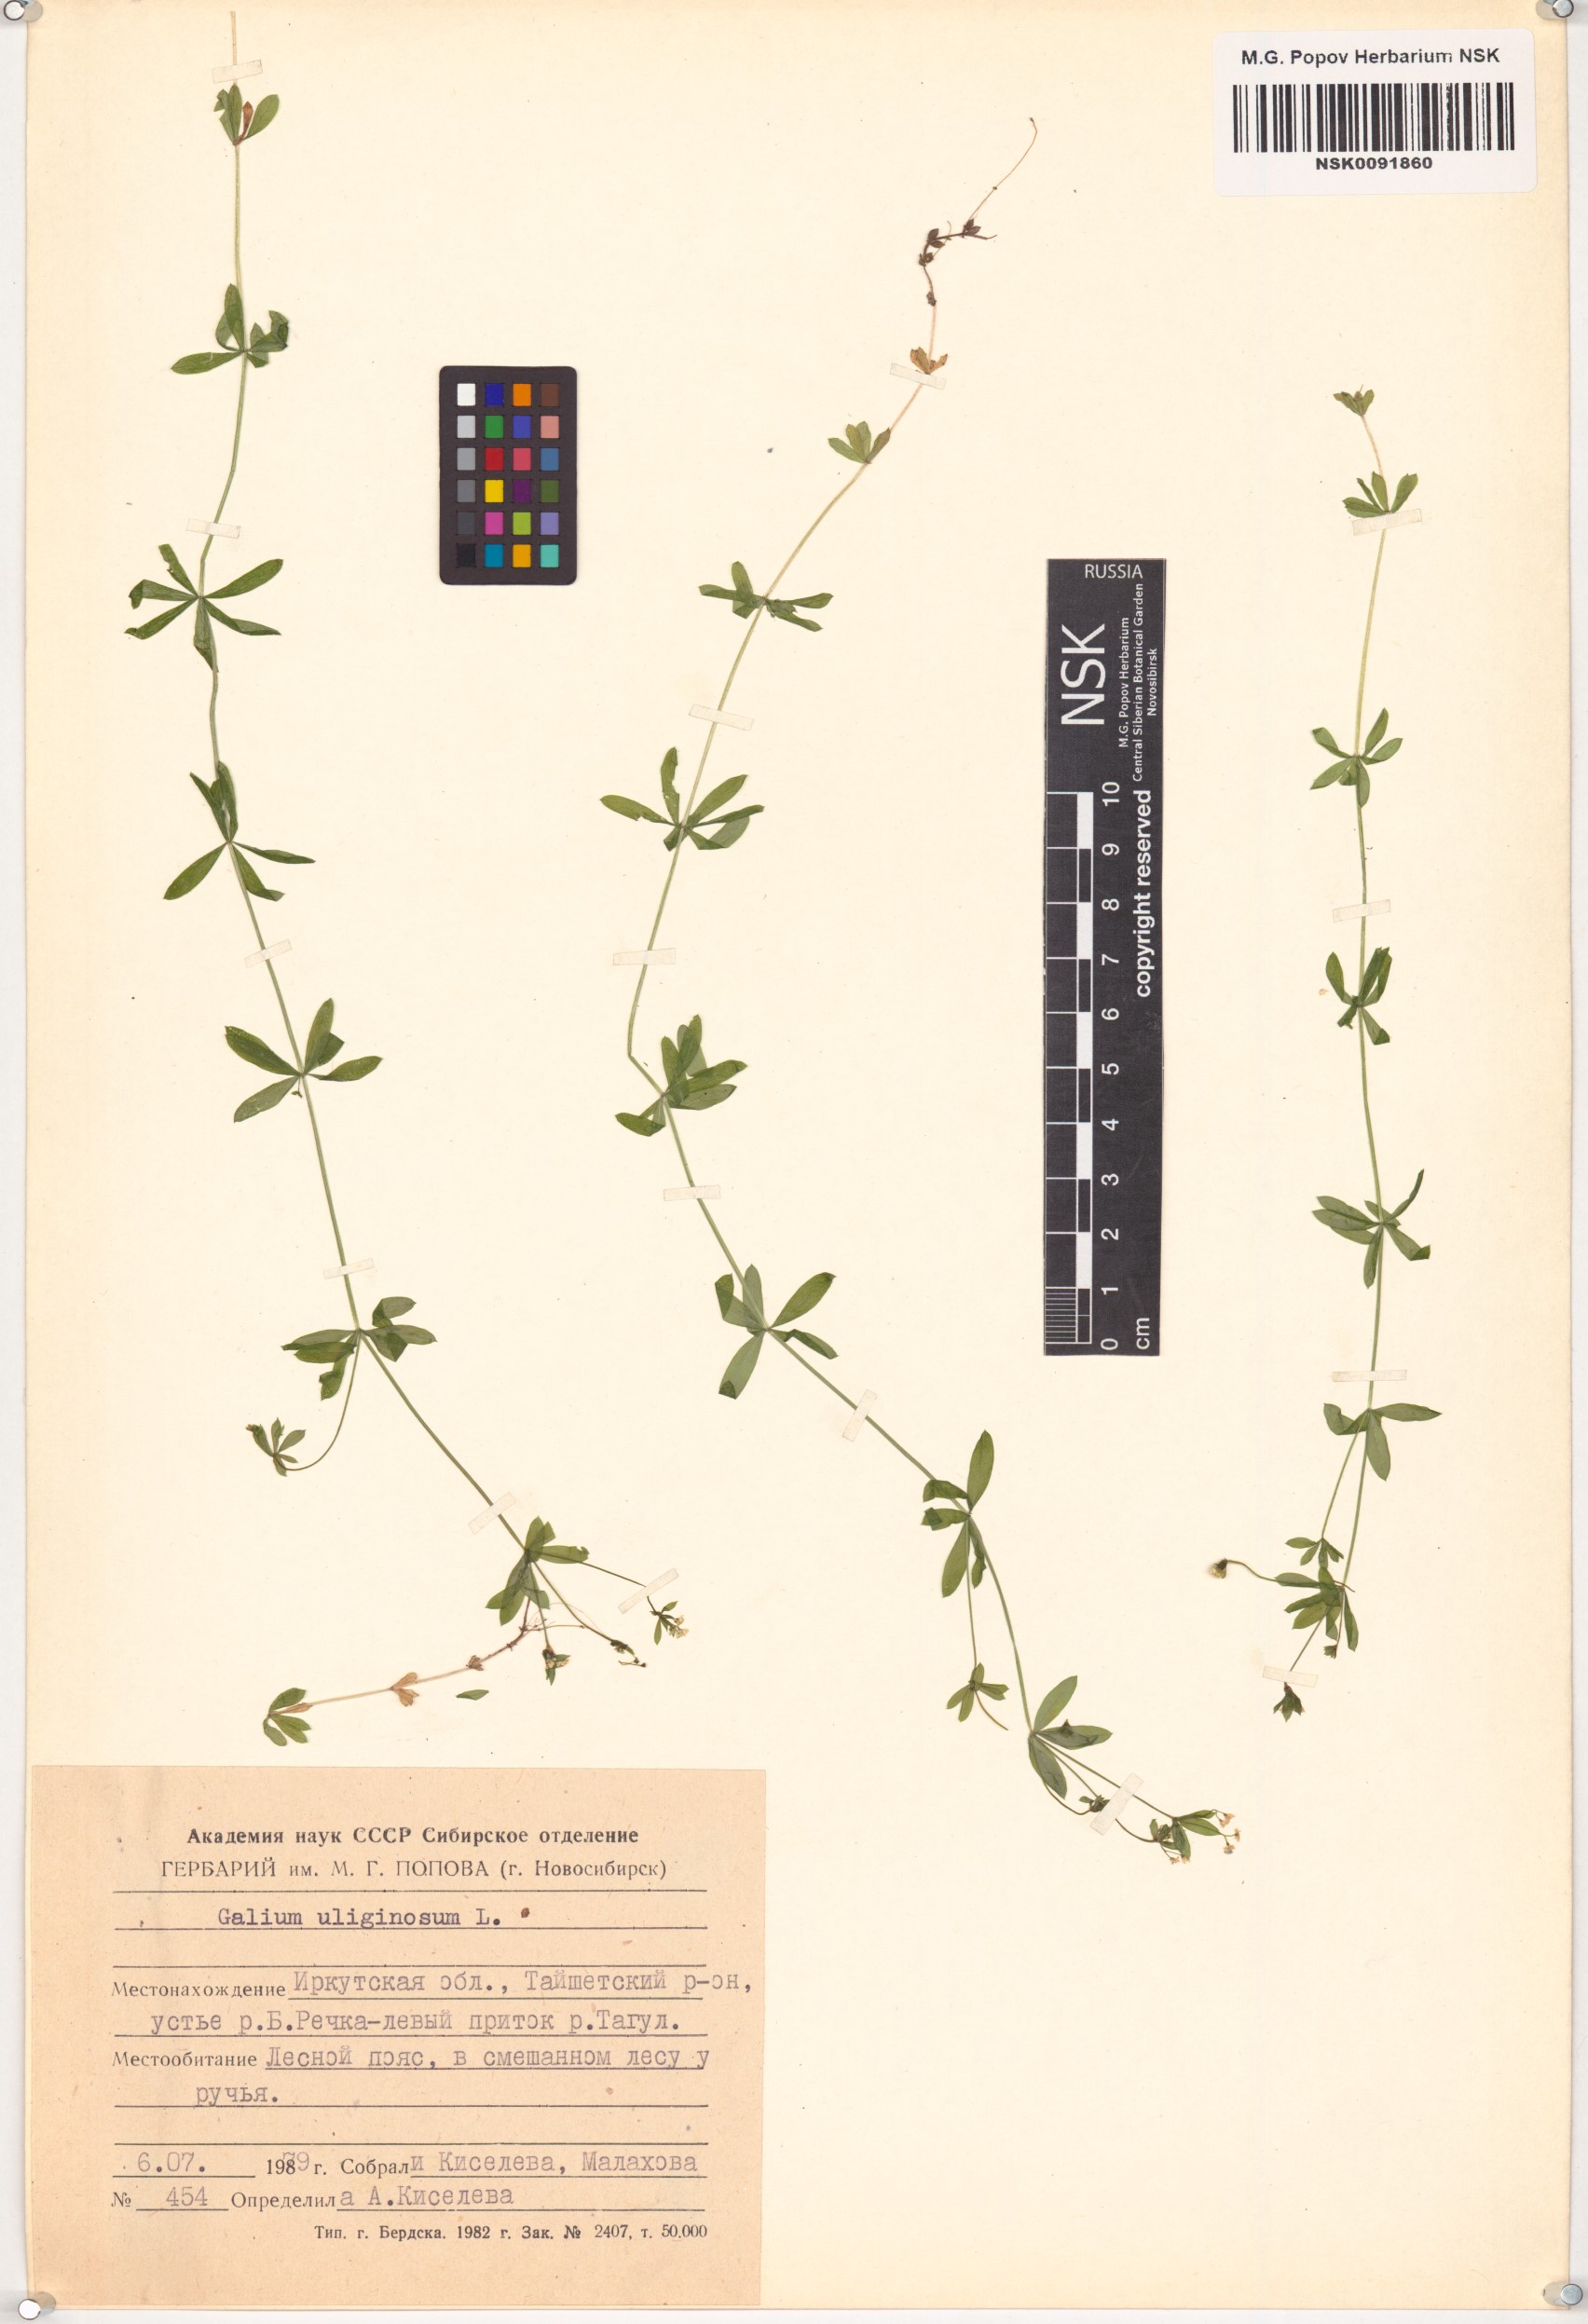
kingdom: Plantae
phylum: Tracheophyta
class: Magnoliopsida
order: Gentianales
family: Rubiaceae
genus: Galium
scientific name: Galium uliginosum
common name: Fen bedstraw
